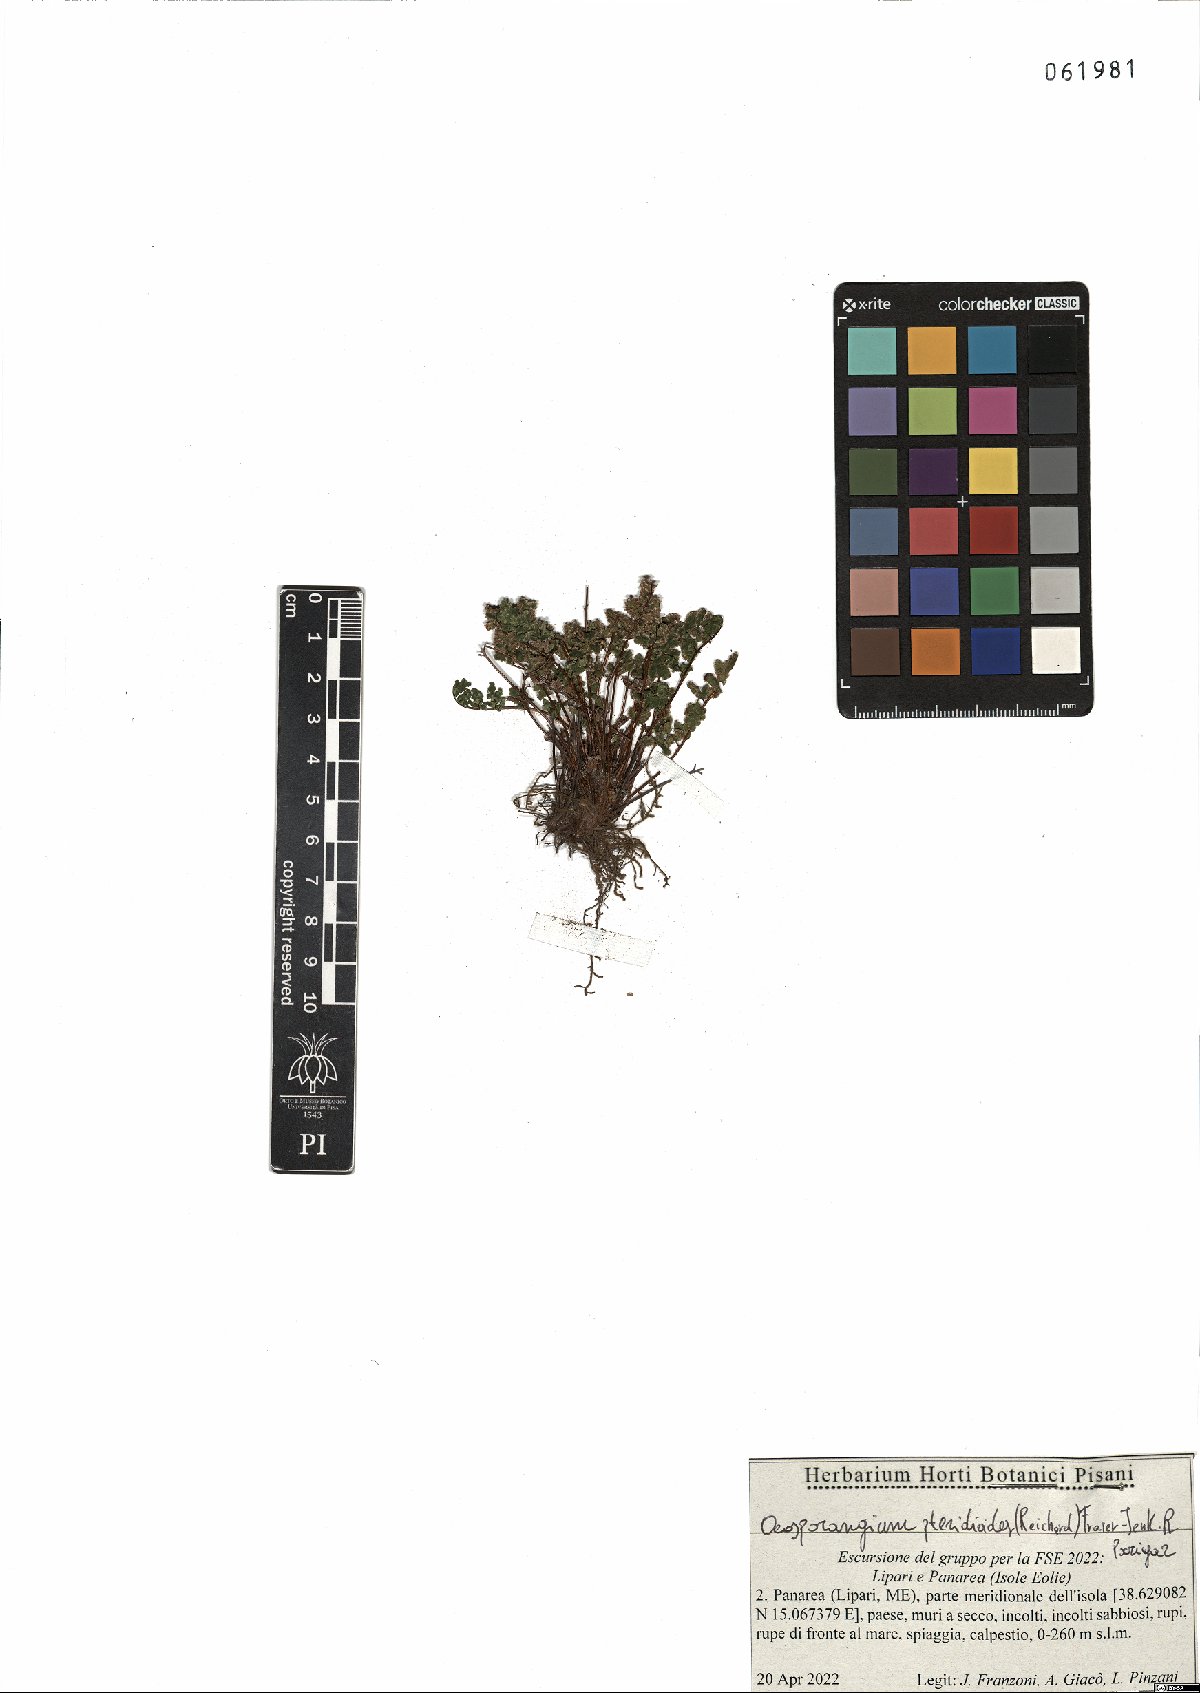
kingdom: Plantae
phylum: Tracheophyta
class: Polypodiopsida
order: Polypodiales
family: Pteridaceae
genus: Oeosporangium
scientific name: Oeosporangium pteridioides
